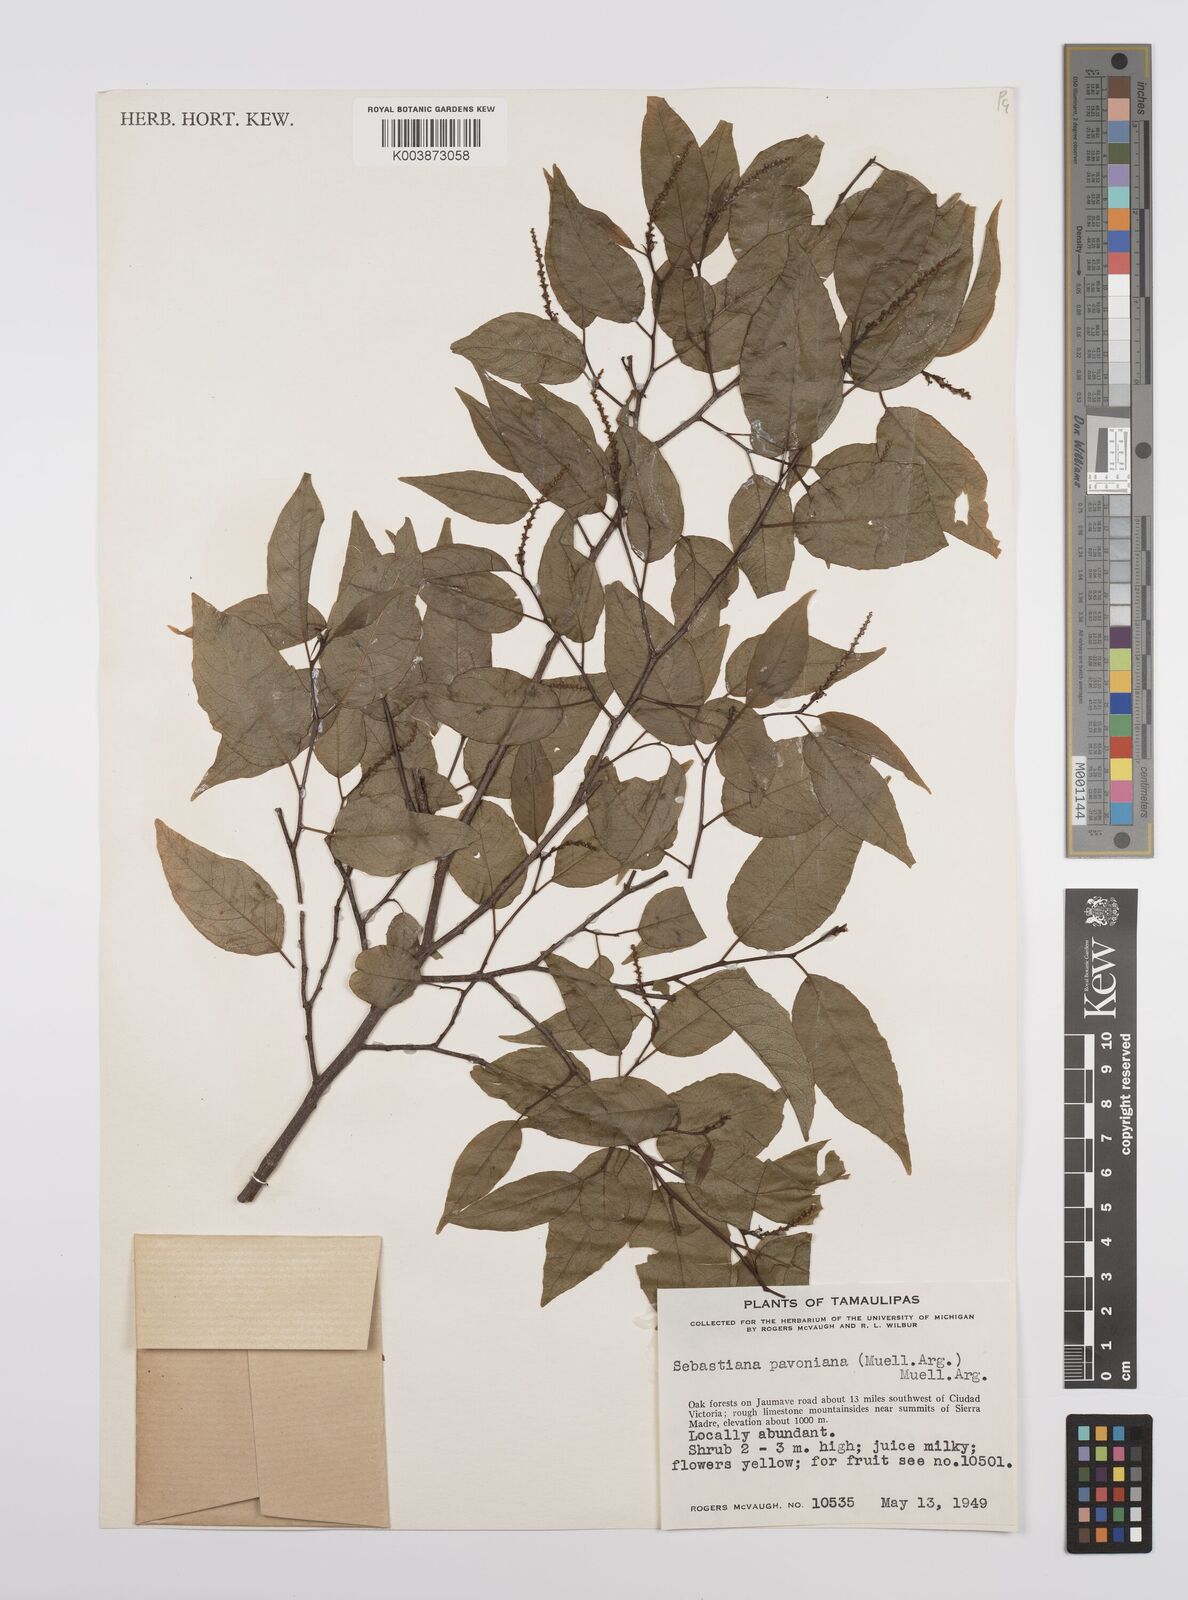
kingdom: Plantae
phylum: Tracheophyta
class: Magnoliopsida
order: Malpighiales
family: Euphorbiaceae
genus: Sebastiania
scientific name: Sebastiania pavoniana
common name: Mexican jumping-beans
